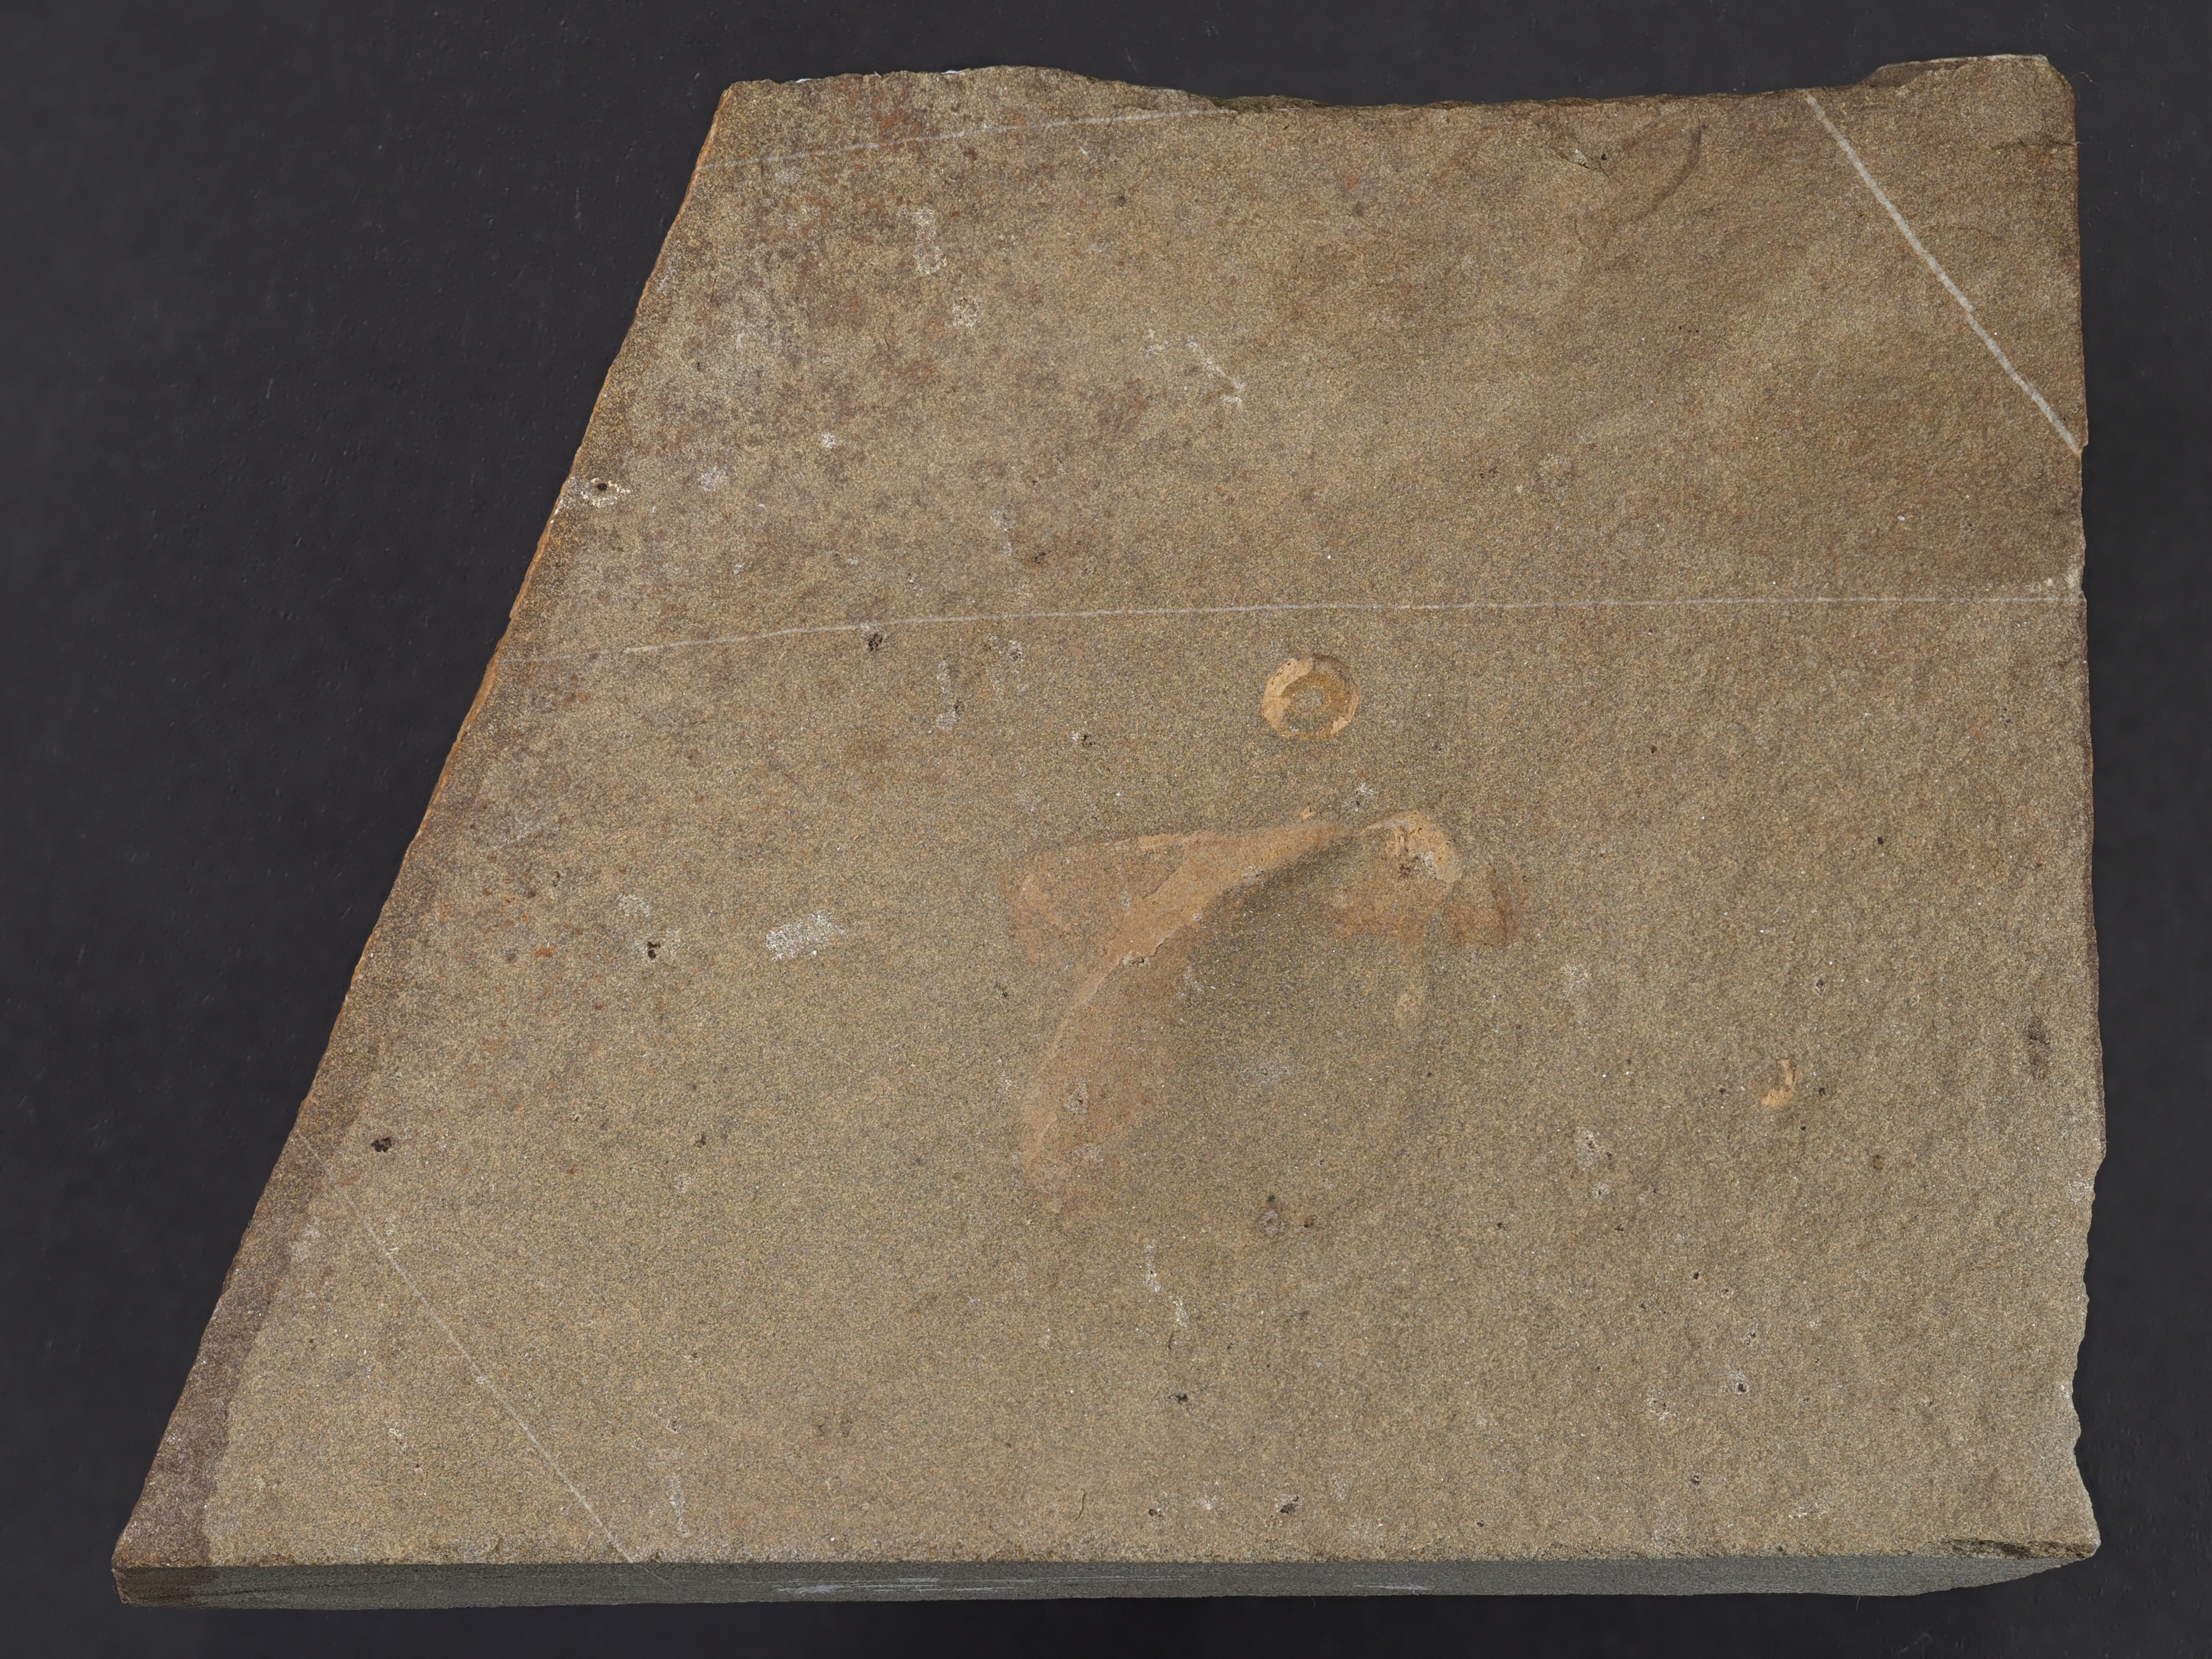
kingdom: Animalia
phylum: Mollusca
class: Bivalvia
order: Ostreida
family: Pterineidae
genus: Leptodesma
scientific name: Leptodesma
